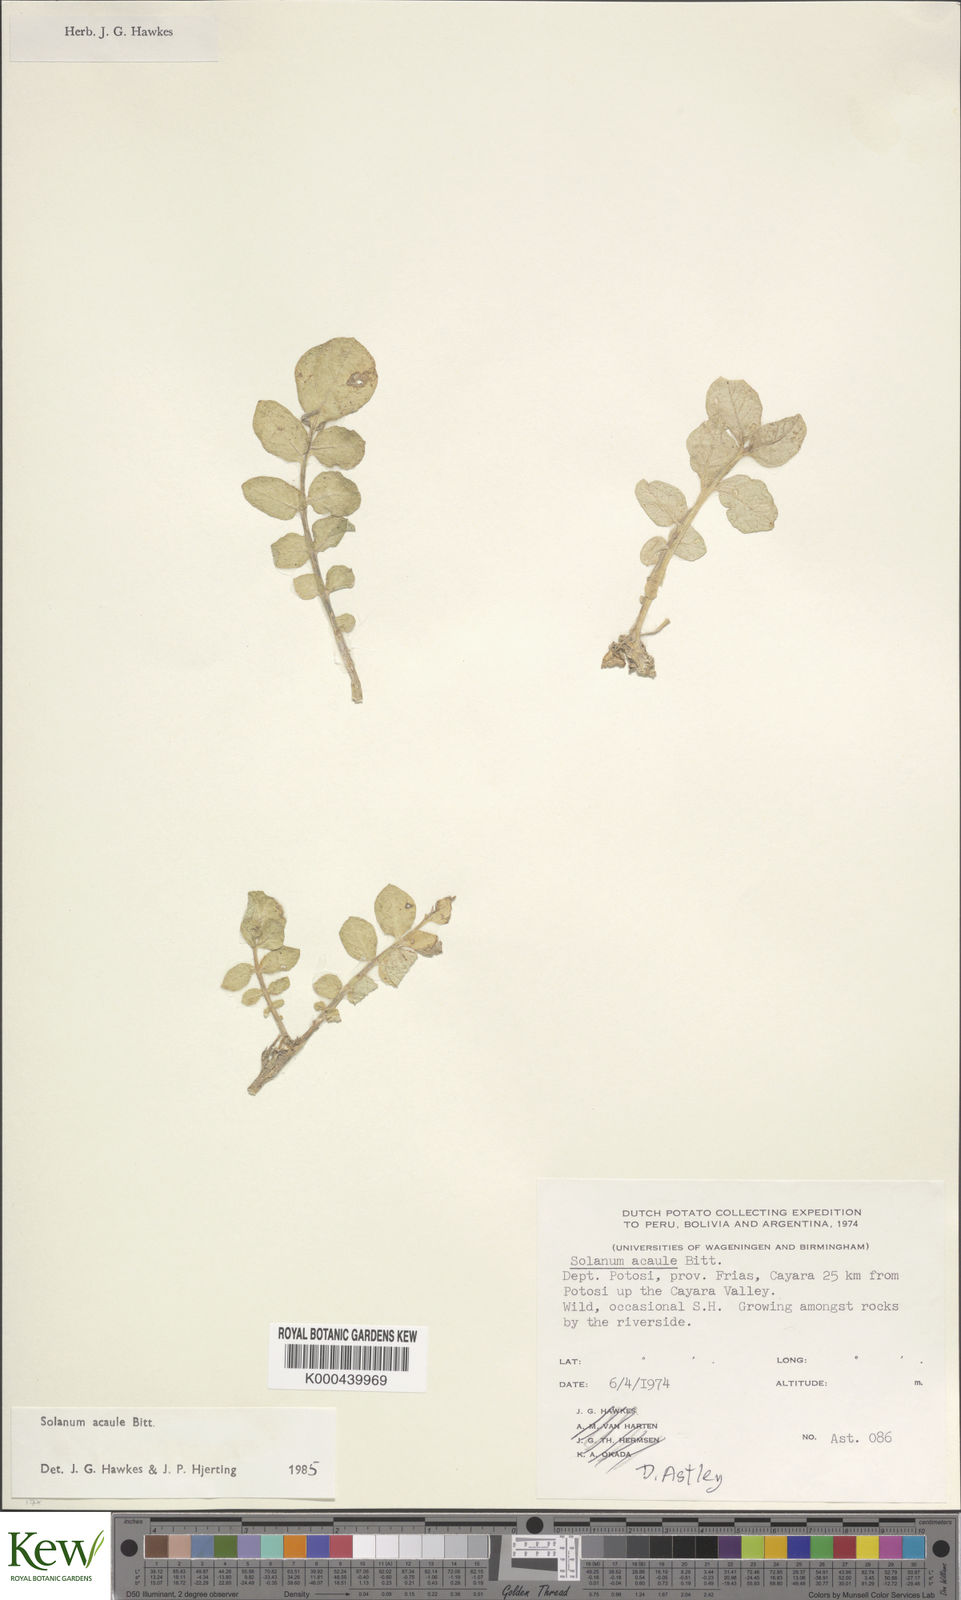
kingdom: Plantae
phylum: Tracheophyta
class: Magnoliopsida
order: Solanales
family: Solanaceae
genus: Solanum
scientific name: Solanum acaule
